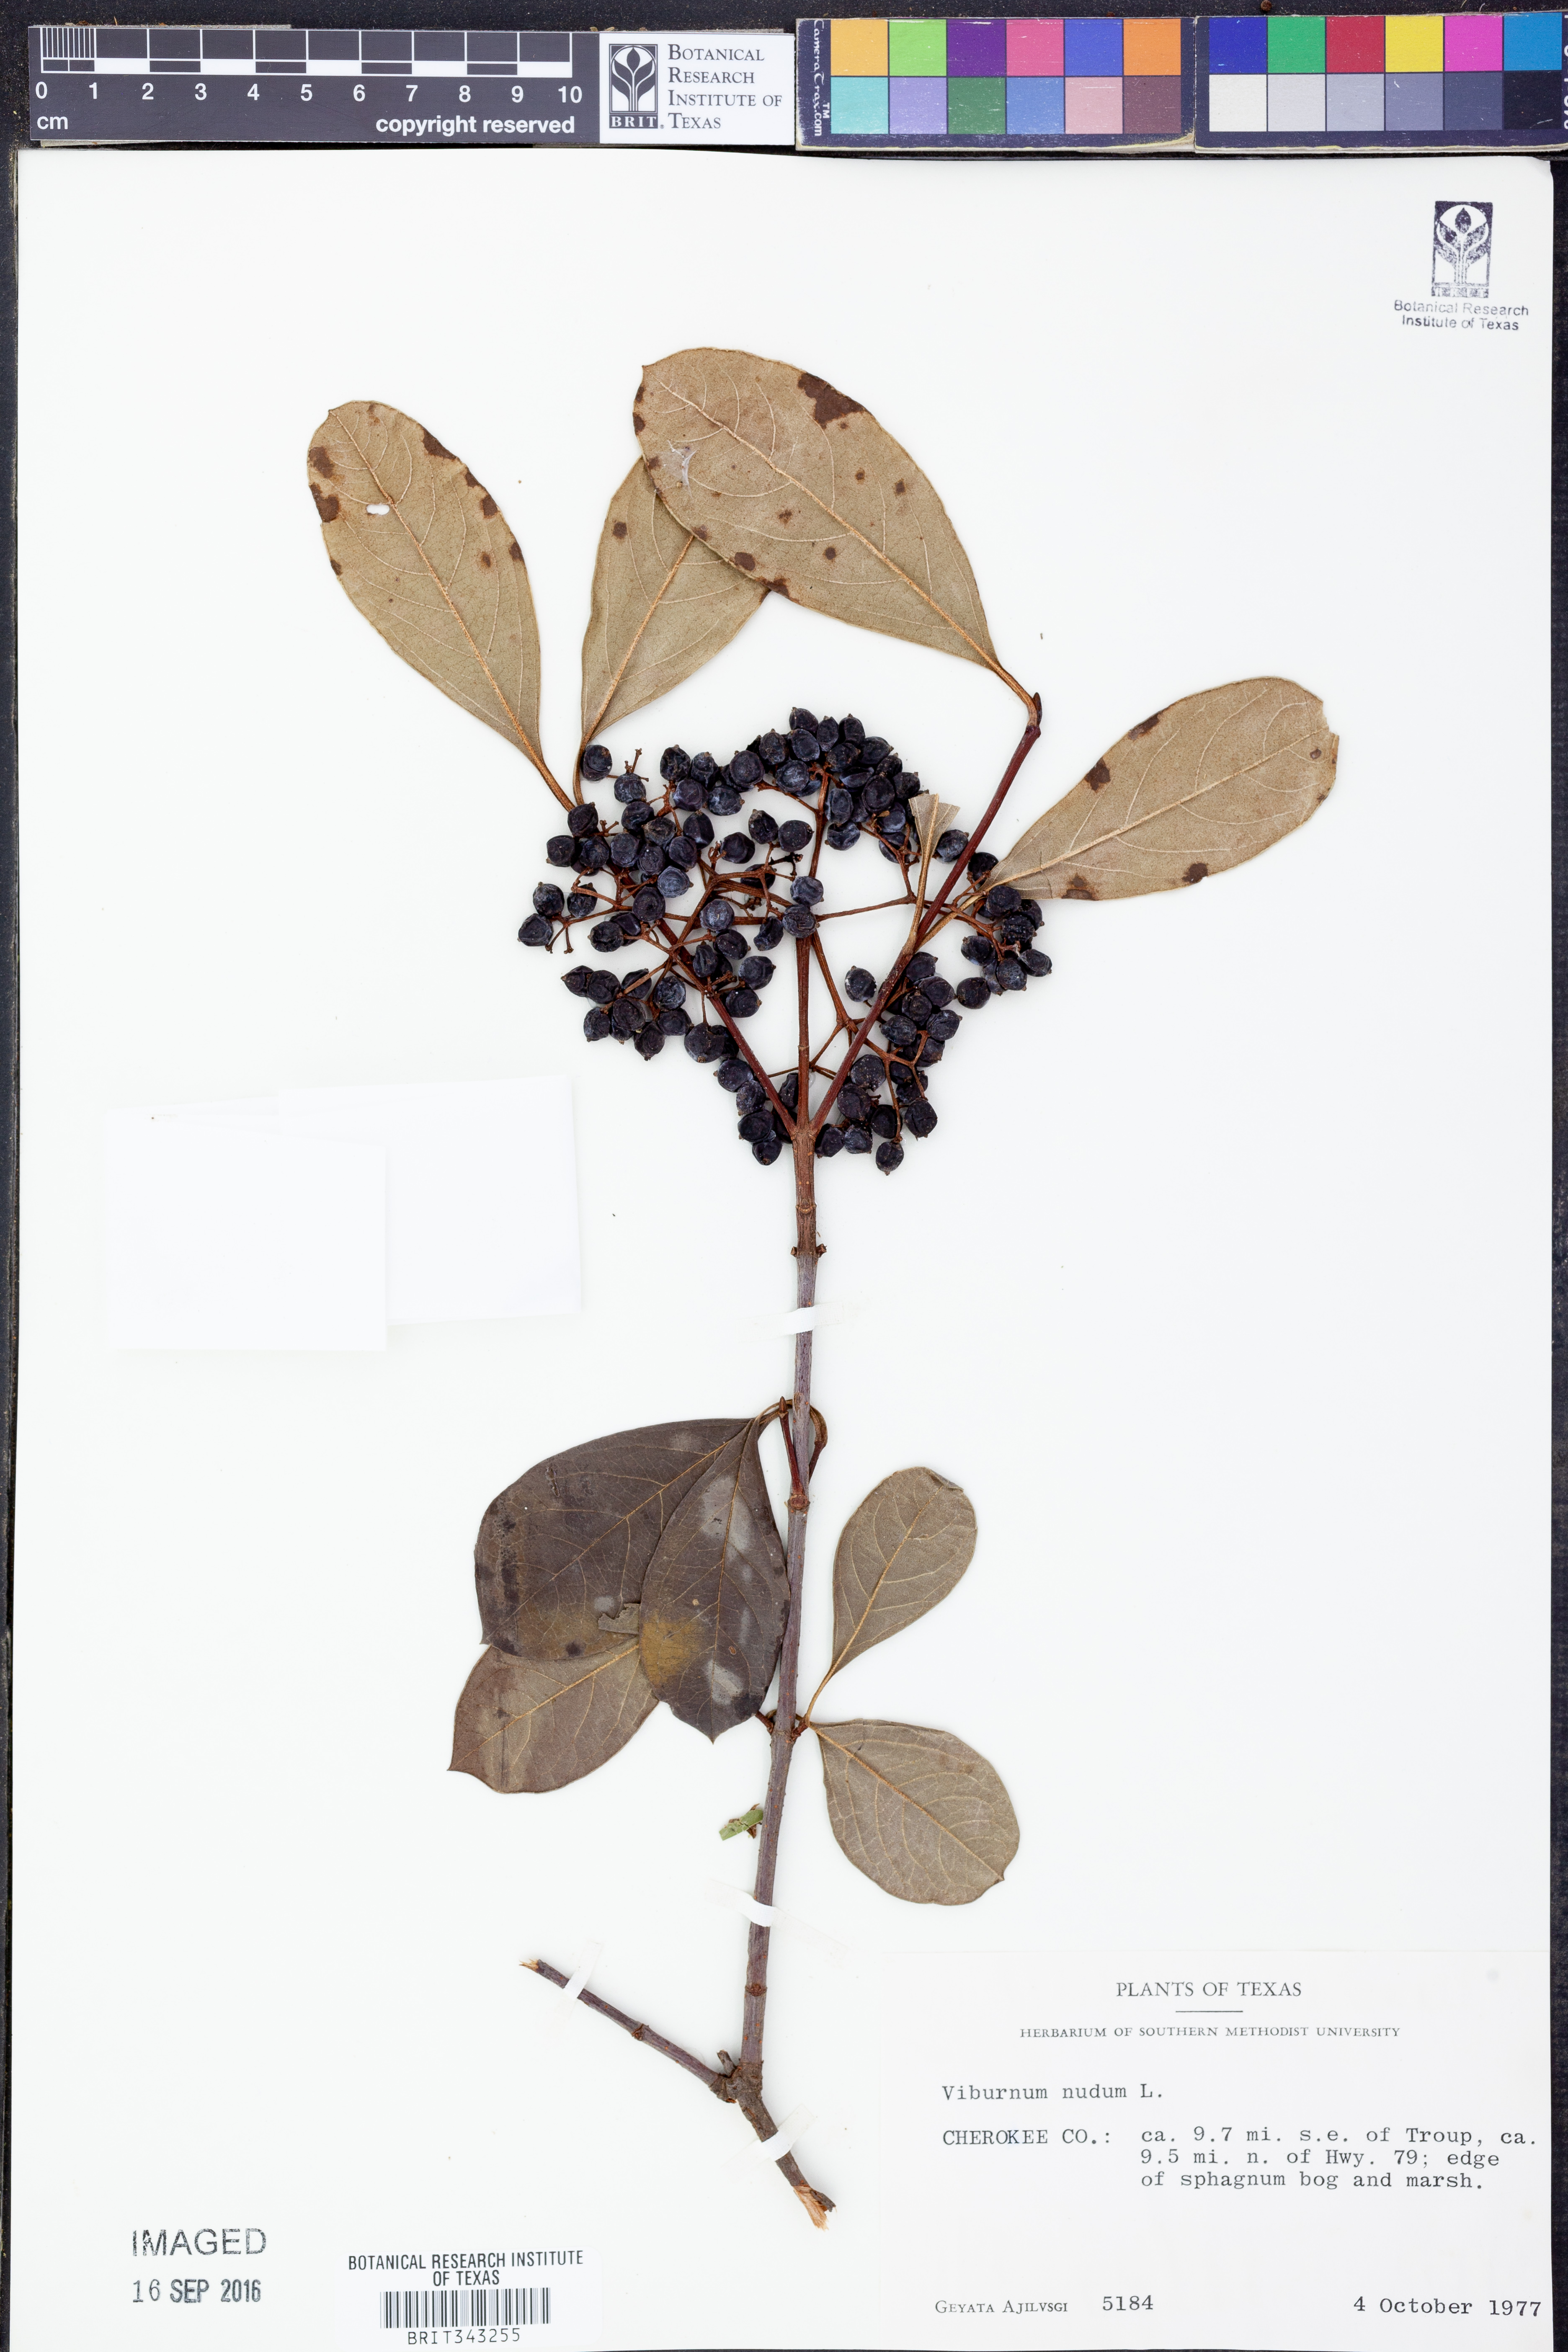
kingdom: Plantae
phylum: Tracheophyta
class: Magnoliopsida
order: Dipsacales
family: Viburnaceae
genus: Viburnum
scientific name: Viburnum nudum
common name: Possum haw
